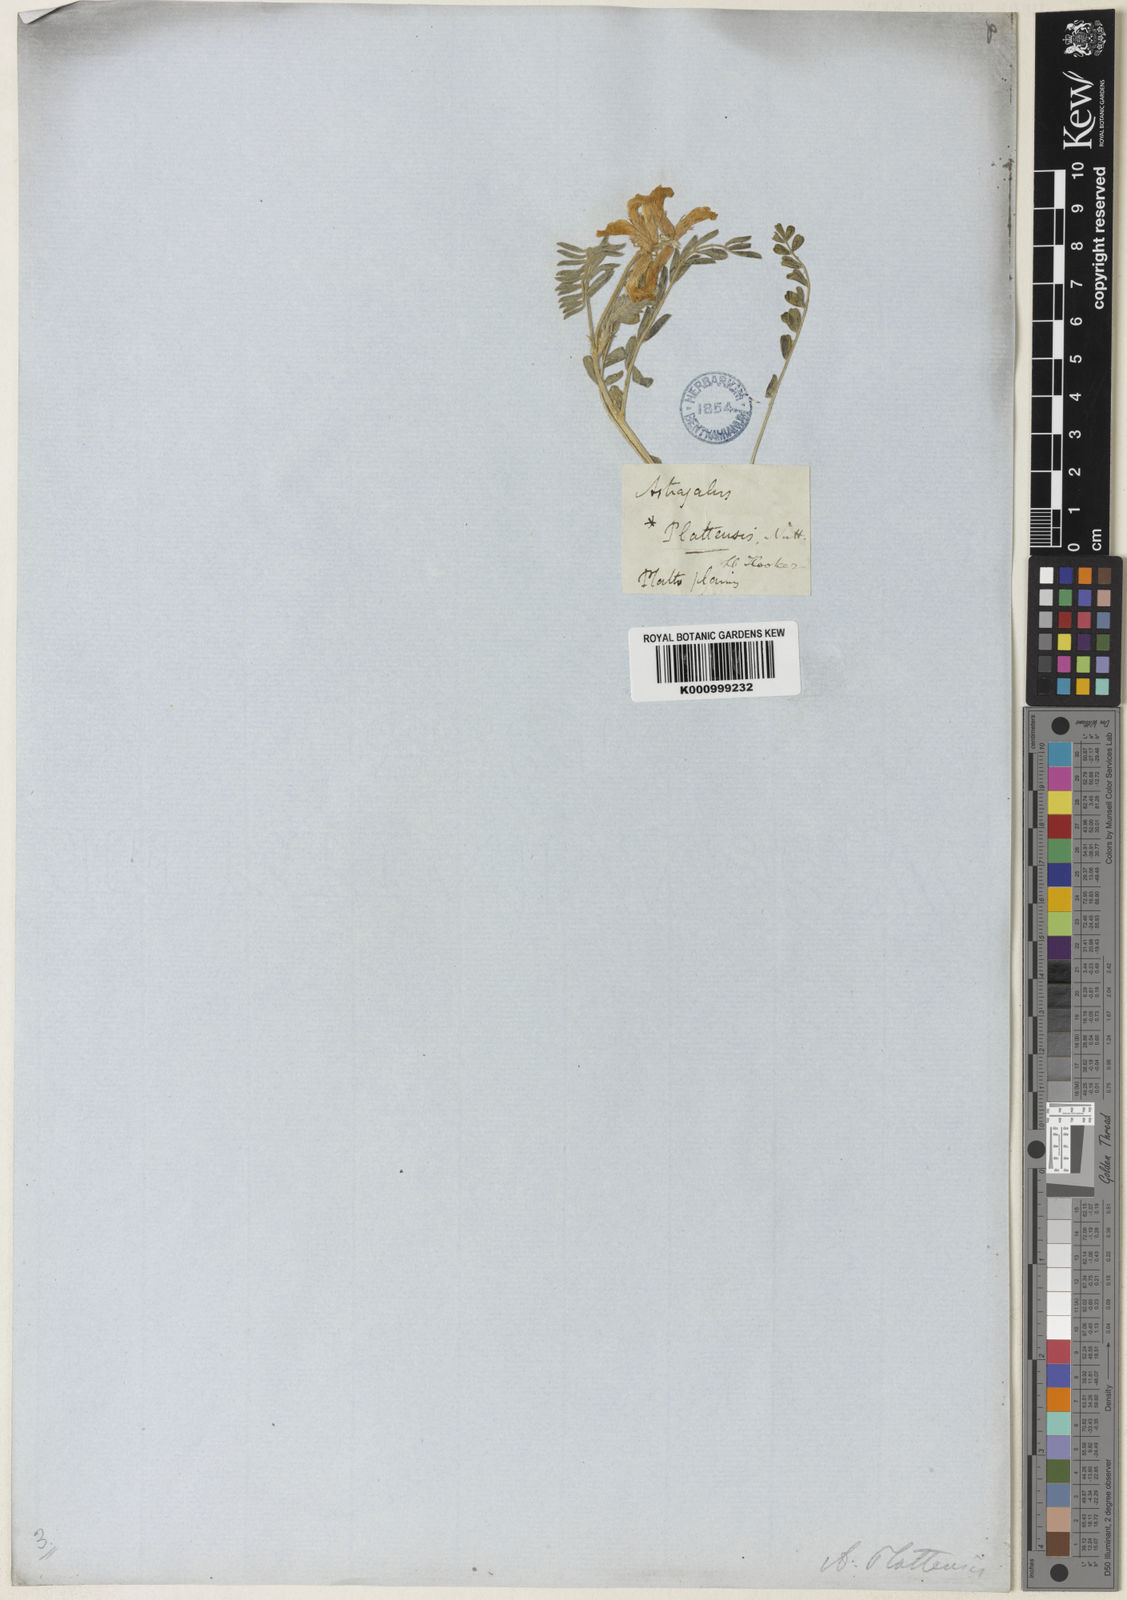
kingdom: Plantae
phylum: Tracheophyta
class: Magnoliopsida
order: Fabales
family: Fabaceae
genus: Astragalus
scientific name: Astragalus plattensis
